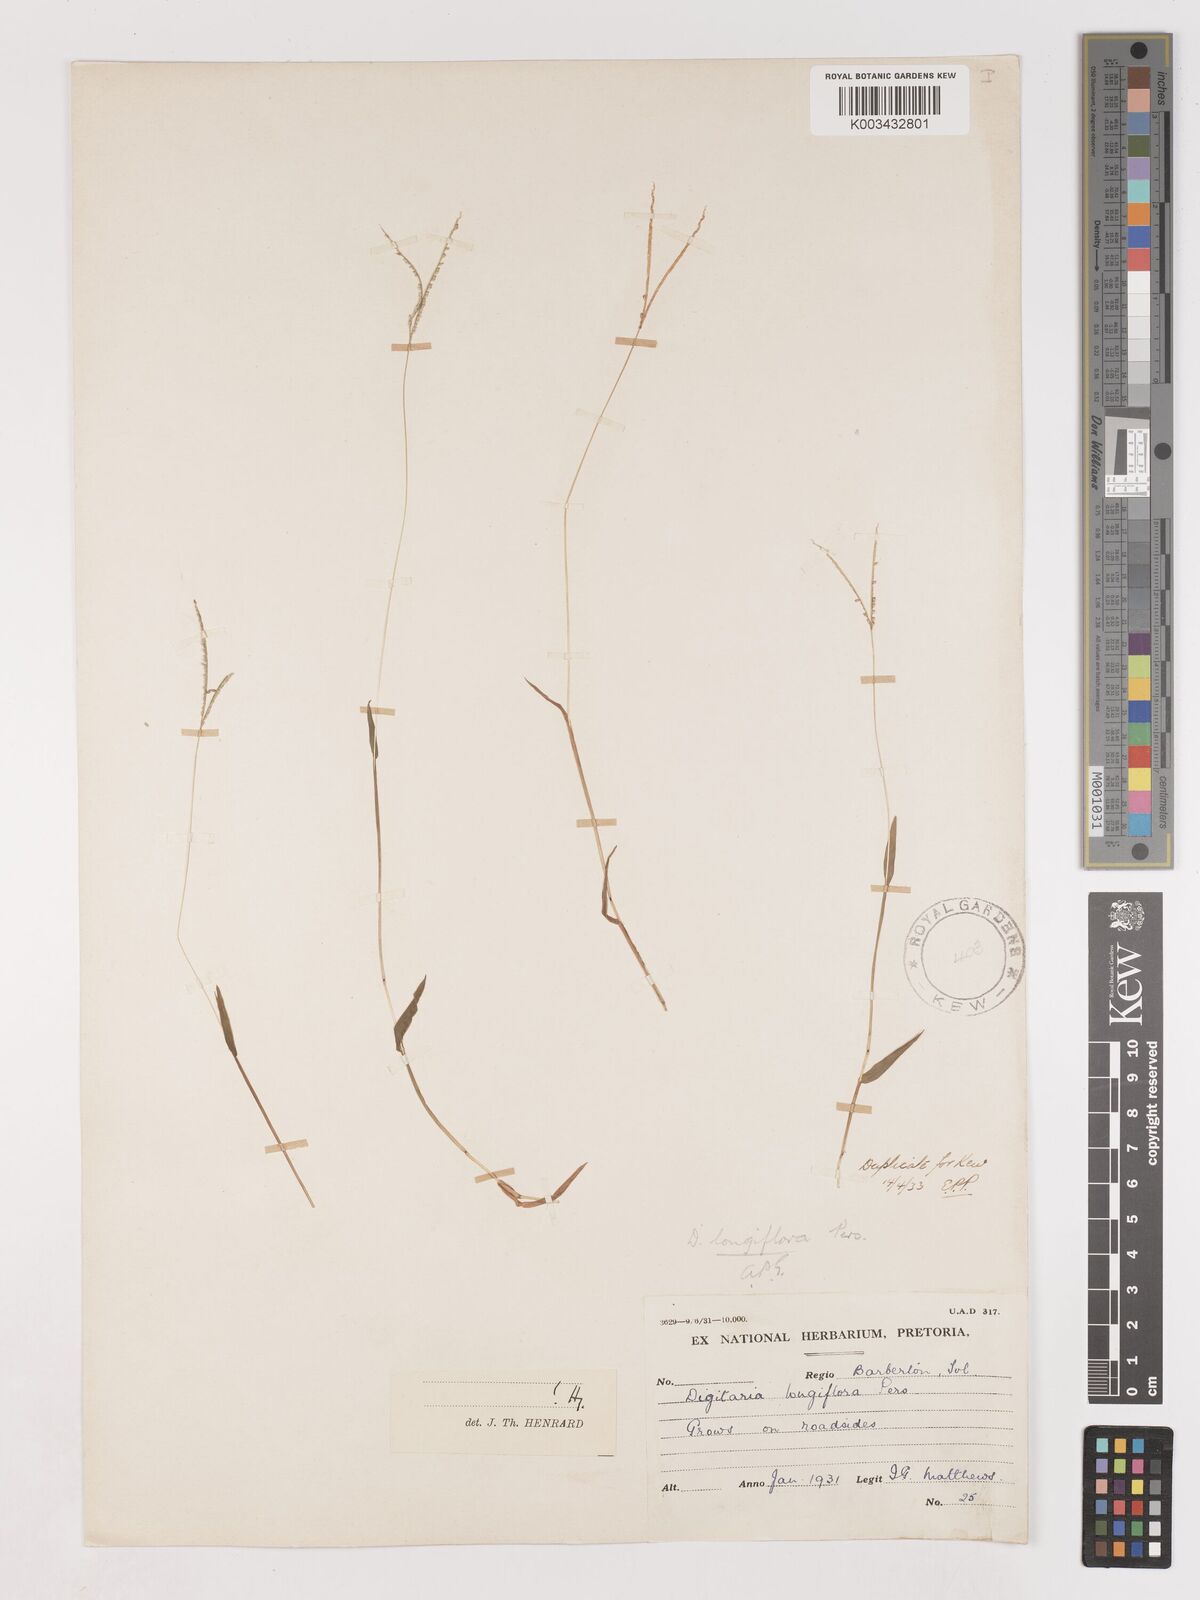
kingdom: Plantae
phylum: Tracheophyta
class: Liliopsida
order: Poales
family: Poaceae
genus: Digitaria
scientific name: Digitaria longiflora
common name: Wire crabgrass
